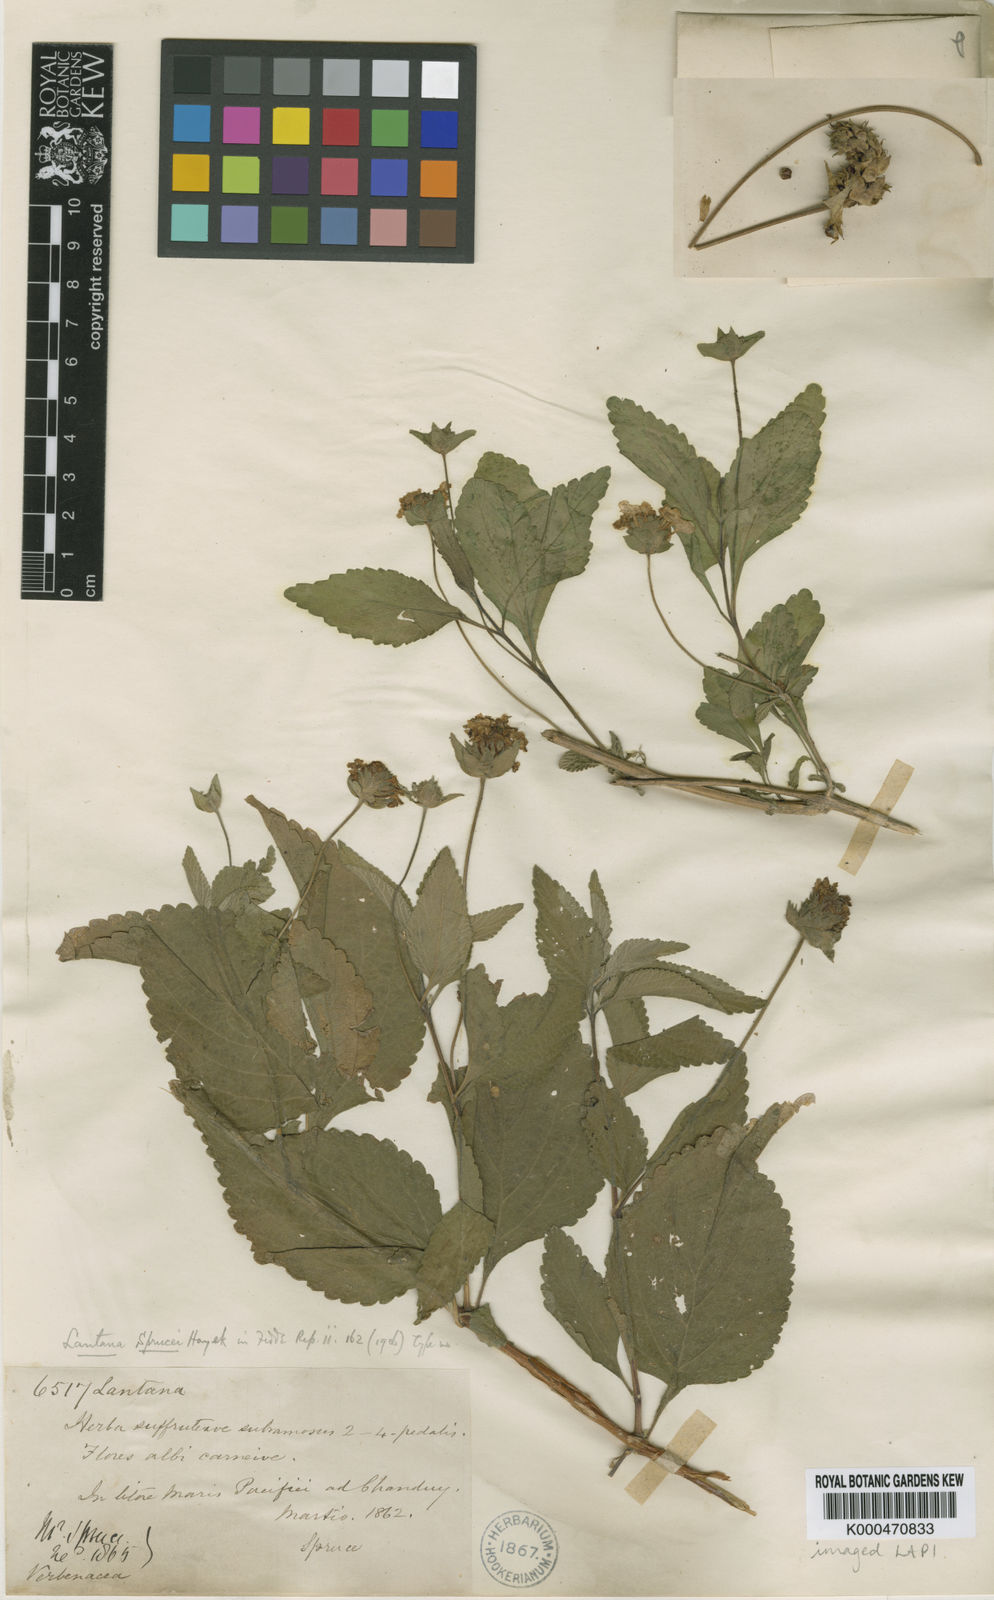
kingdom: Plantae
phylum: Tracheophyta
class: Magnoliopsida
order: Lamiales
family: Verbenaceae
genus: Lantana
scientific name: Lantana sprucei
